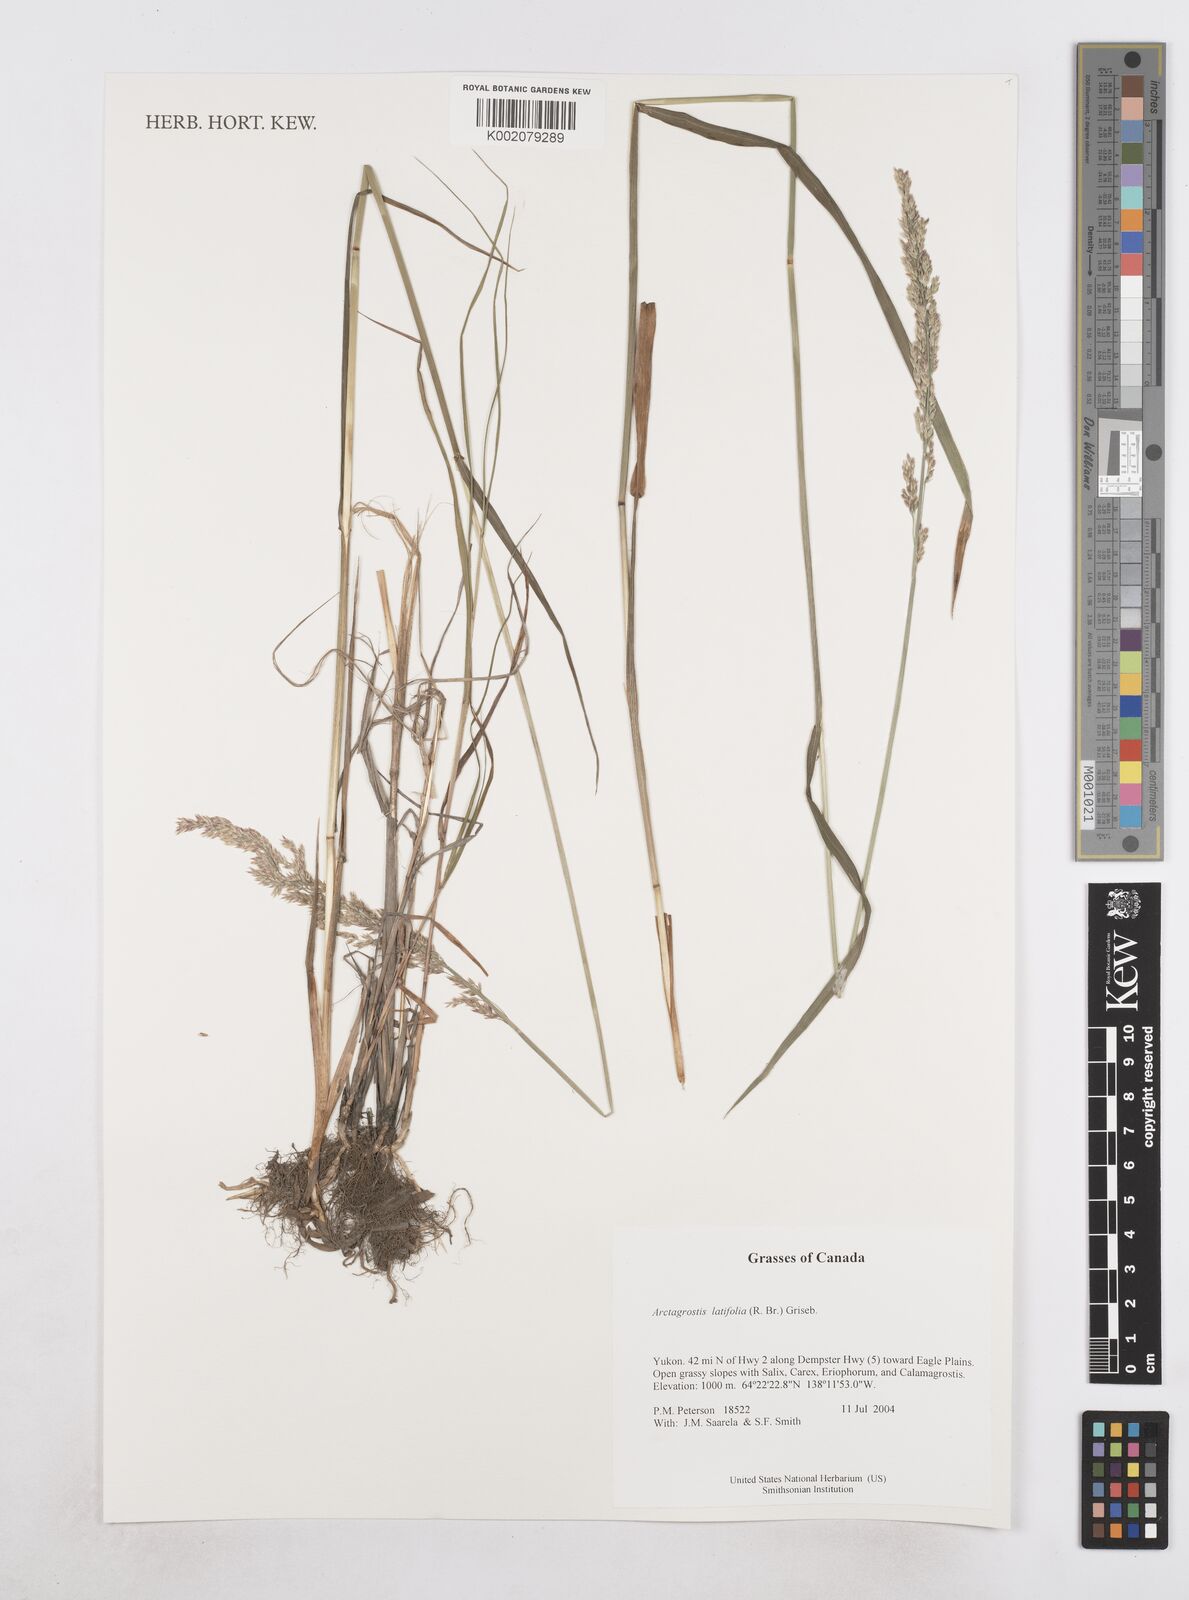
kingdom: Plantae
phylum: Tracheophyta
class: Liliopsida
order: Poales
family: Poaceae
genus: Arctagrostis
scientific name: Arctagrostis latifolia
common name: Arctic grass
